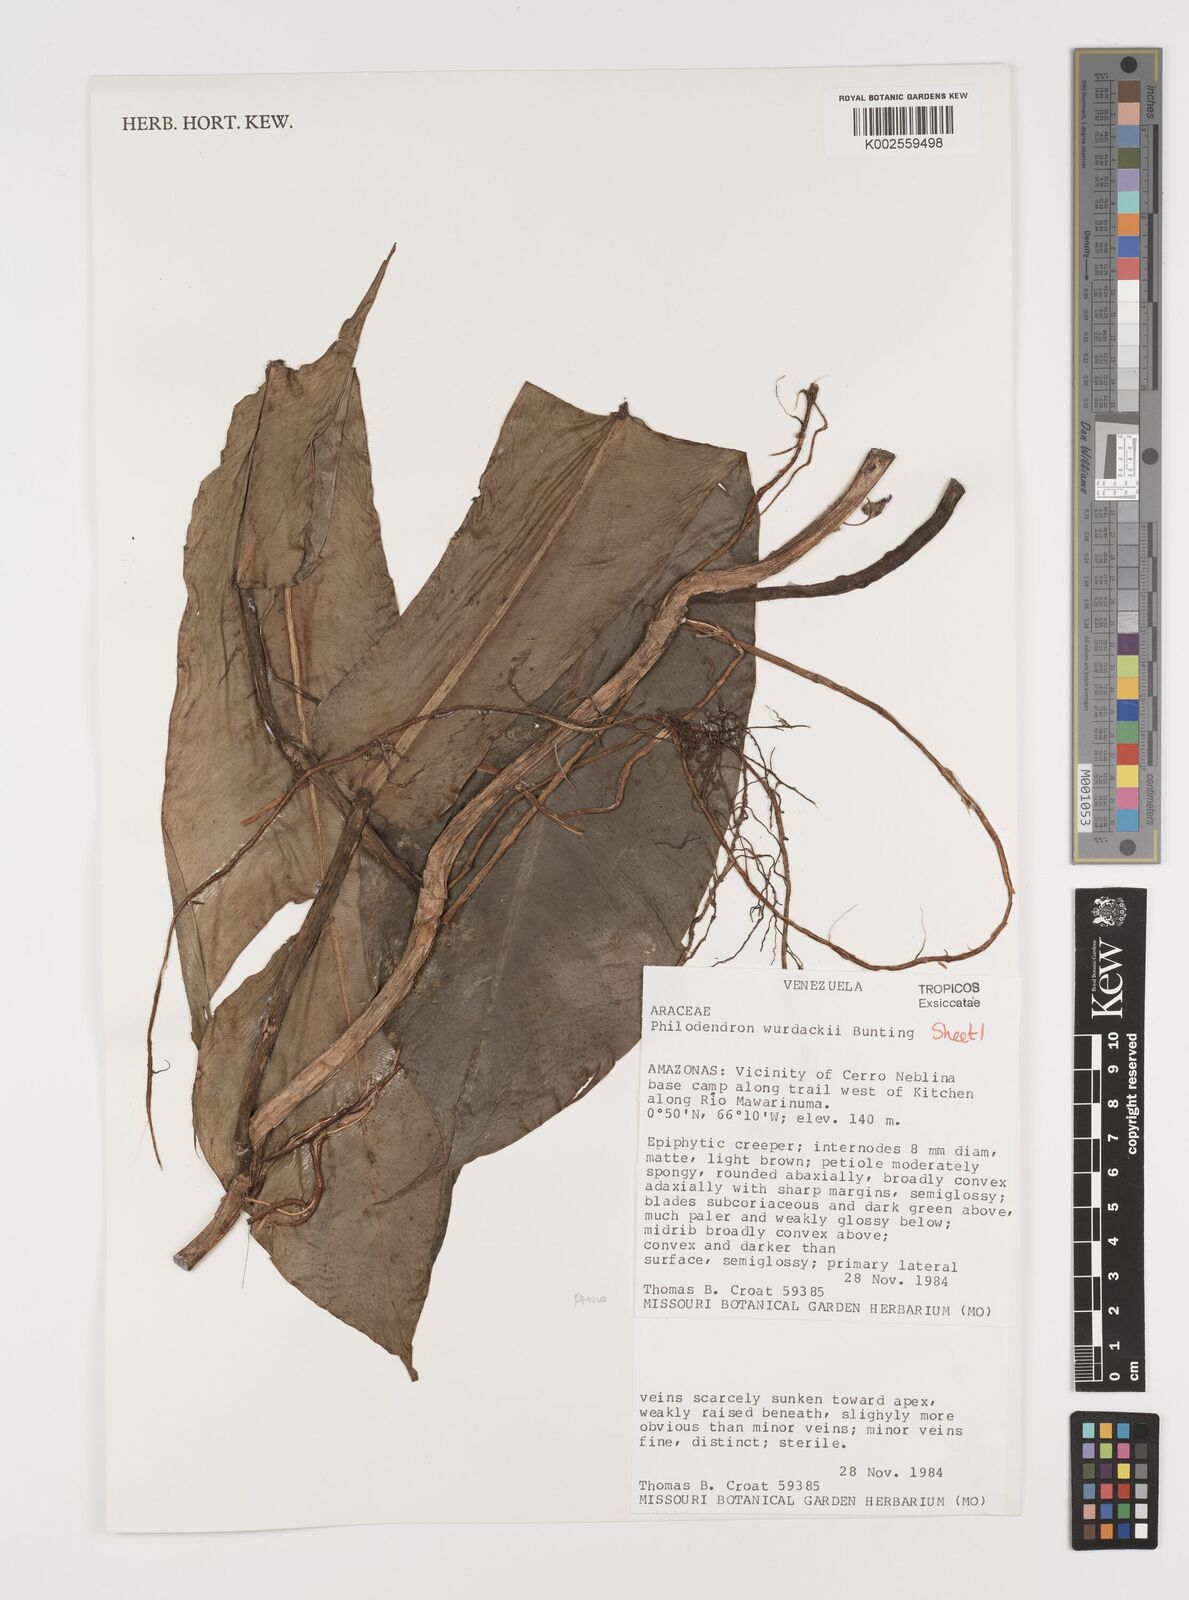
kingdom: Plantae
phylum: Tracheophyta
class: Liliopsida
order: Alismatales
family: Araceae
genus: Philodendron
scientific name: Philodendron wurdackii
